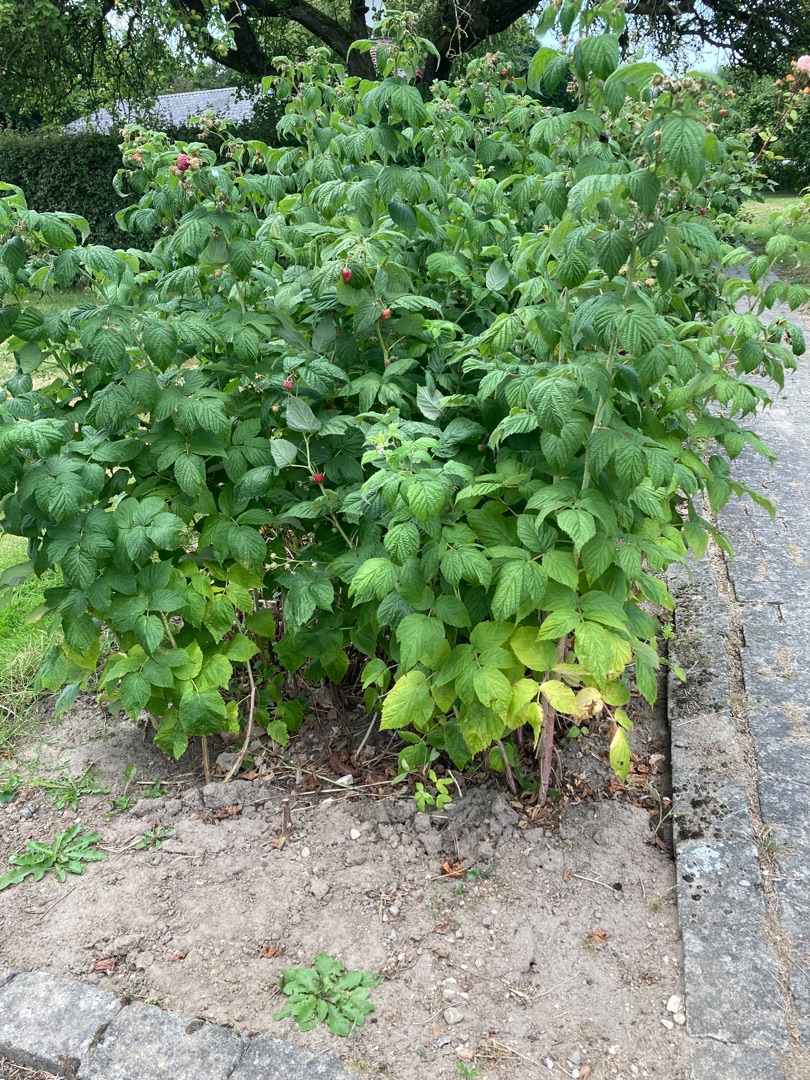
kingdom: Plantae
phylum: Tracheophyta
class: Magnoliopsida
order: Rosales
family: Rosaceae
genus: Rubus
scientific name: Rubus idaeus
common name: Hindbær
